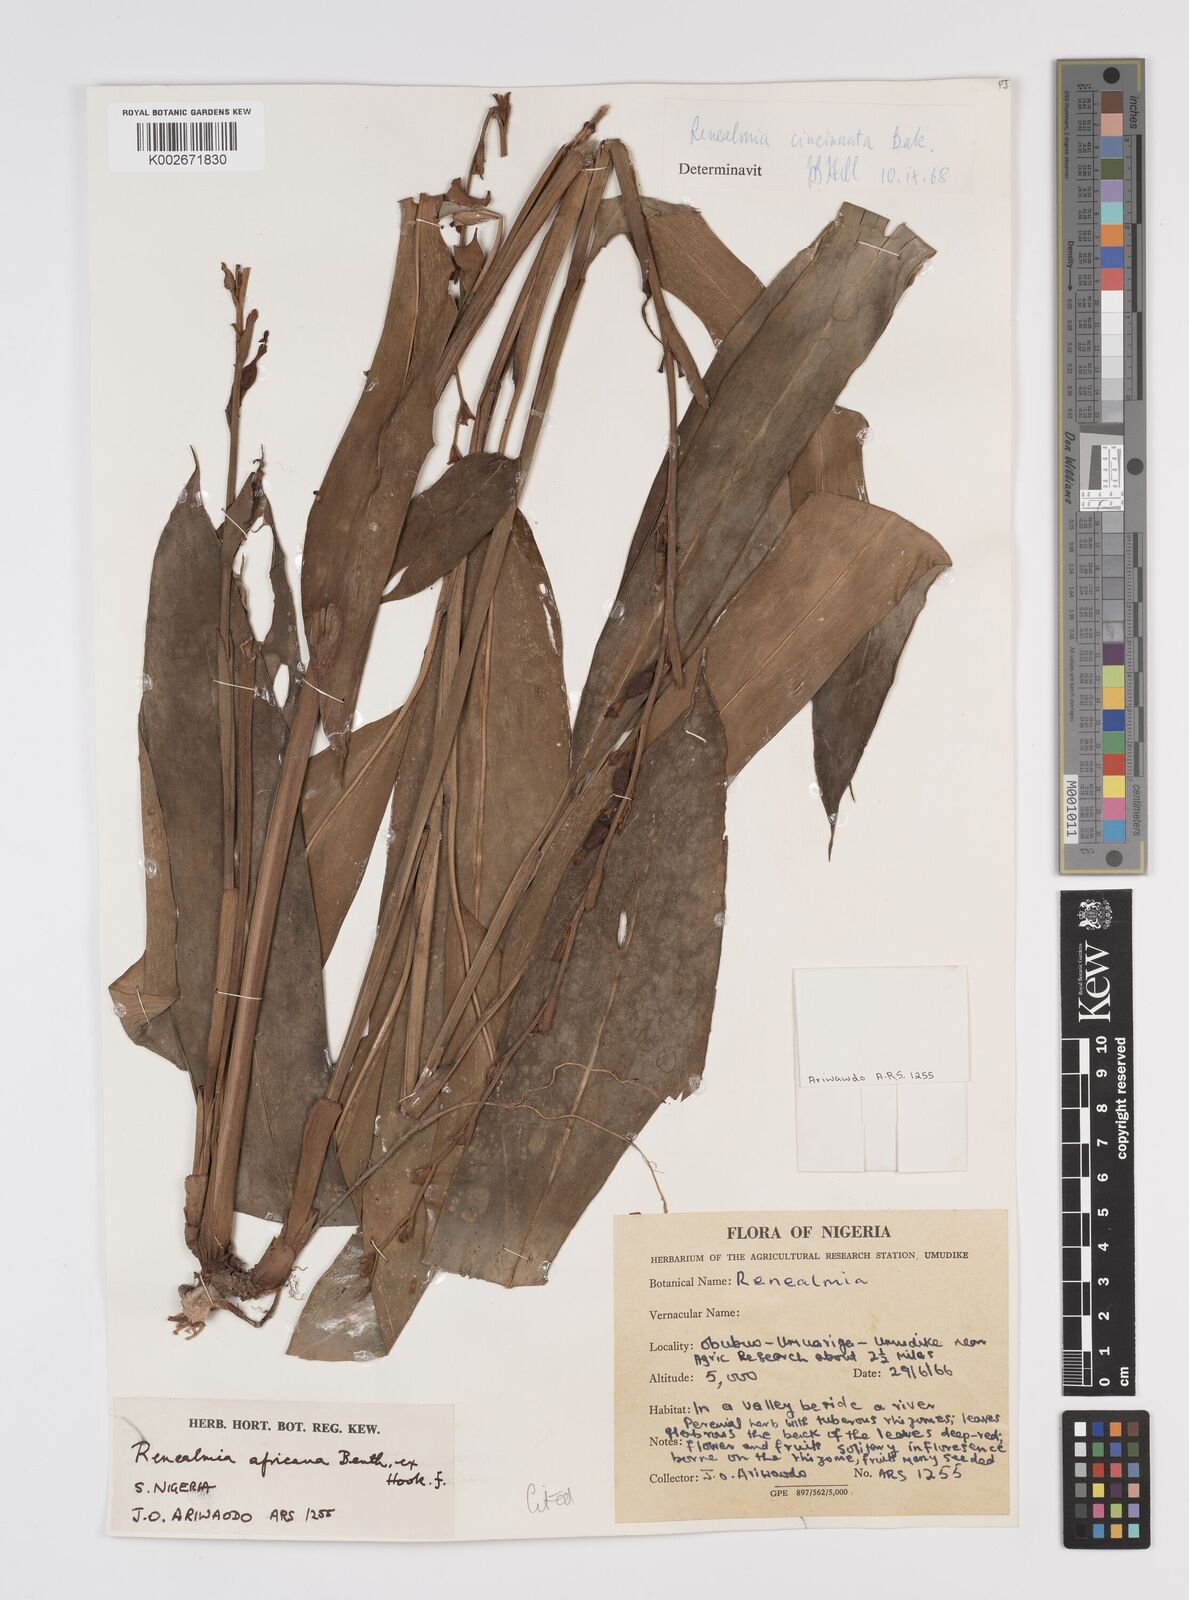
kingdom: Plantae
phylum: Tracheophyta
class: Liliopsida
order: Zingiberales
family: Zingiberaceae
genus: Renealmia
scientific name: Renealmia africana
